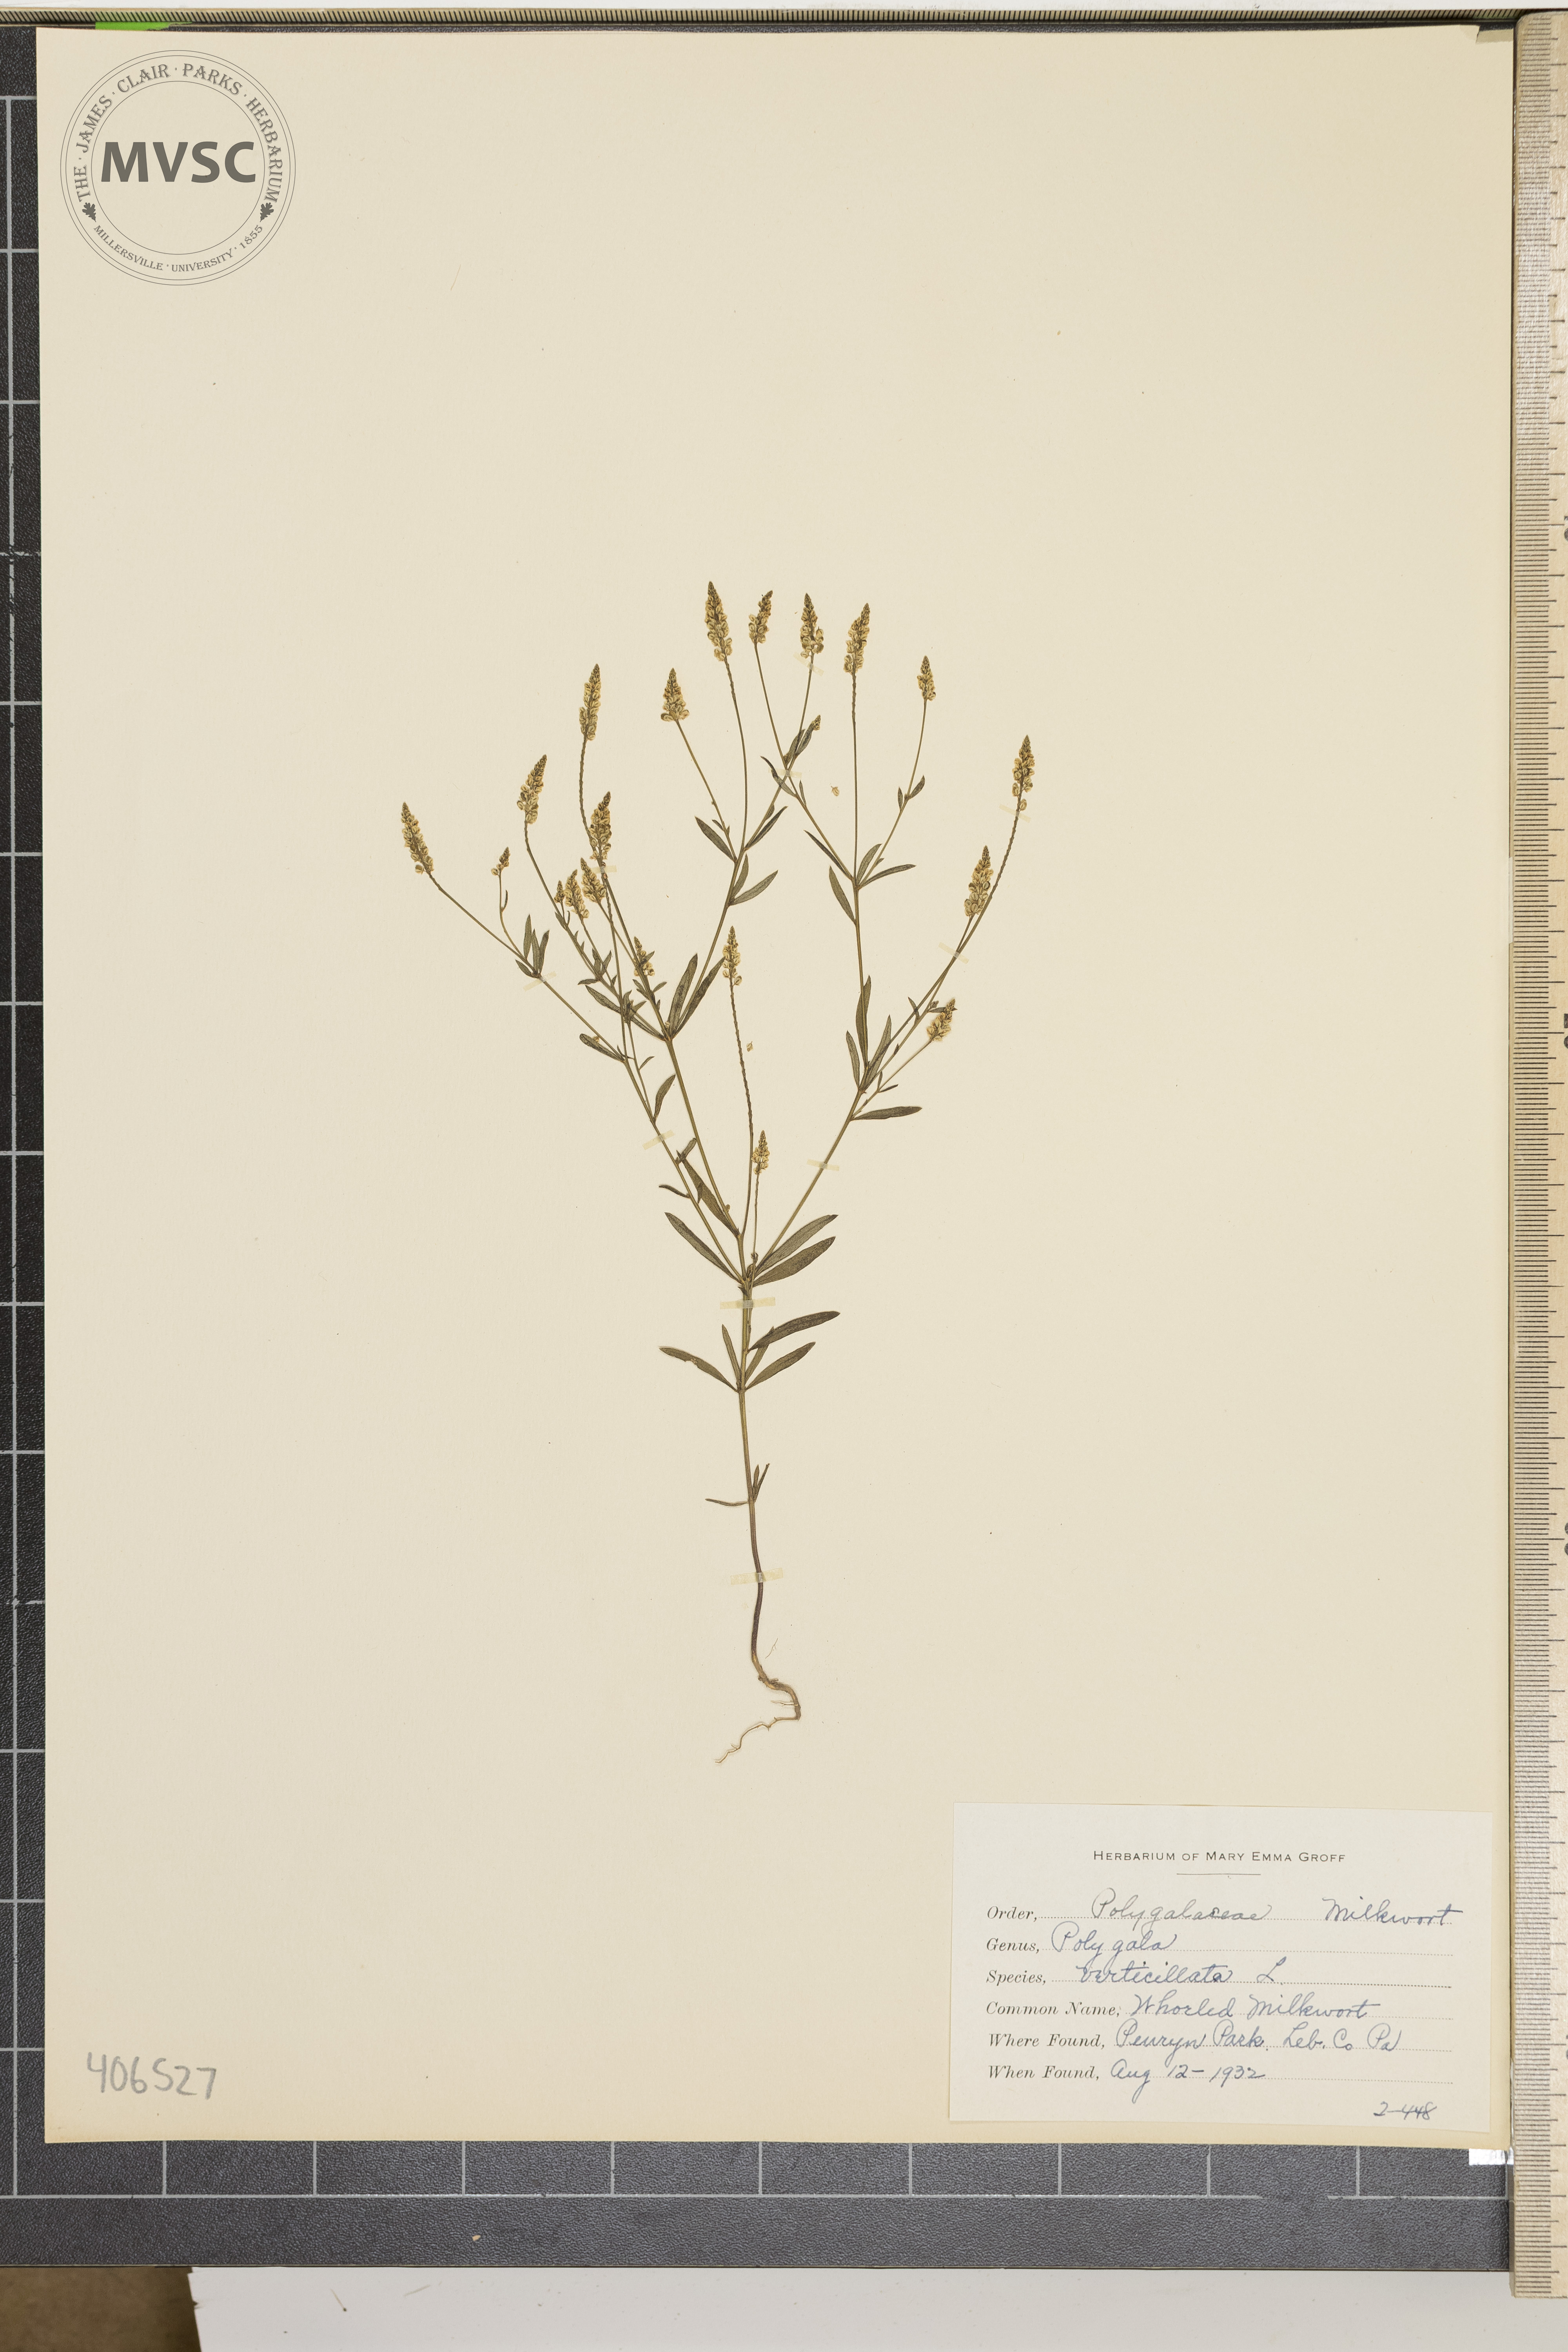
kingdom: Plantae
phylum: Tracheophyta
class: Magnoliopsida
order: Fabales
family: Polygalaceae
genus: Polygala
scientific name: Polygala verticillata
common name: Whorled Milkwort
